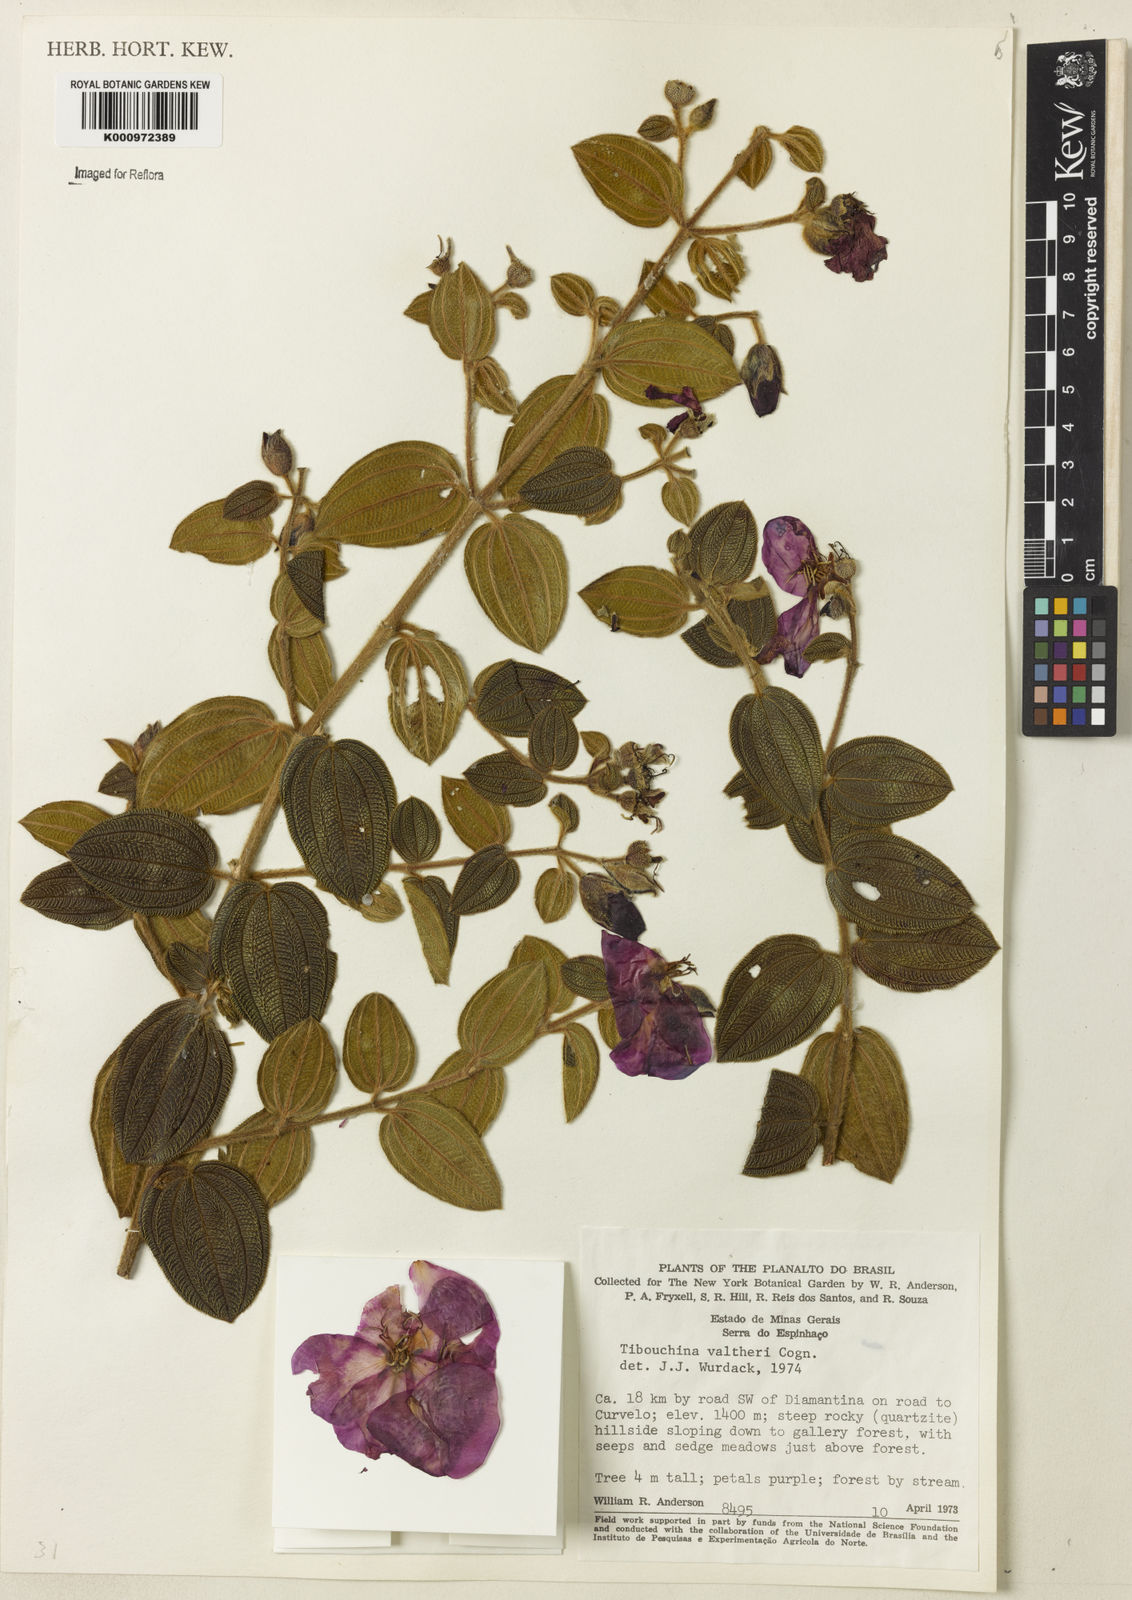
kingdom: Plantae
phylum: Tracheophyta
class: Magnoliopsida
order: Myrtales
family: Melastomataceae
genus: Pleroma
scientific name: Pleroma aemula
